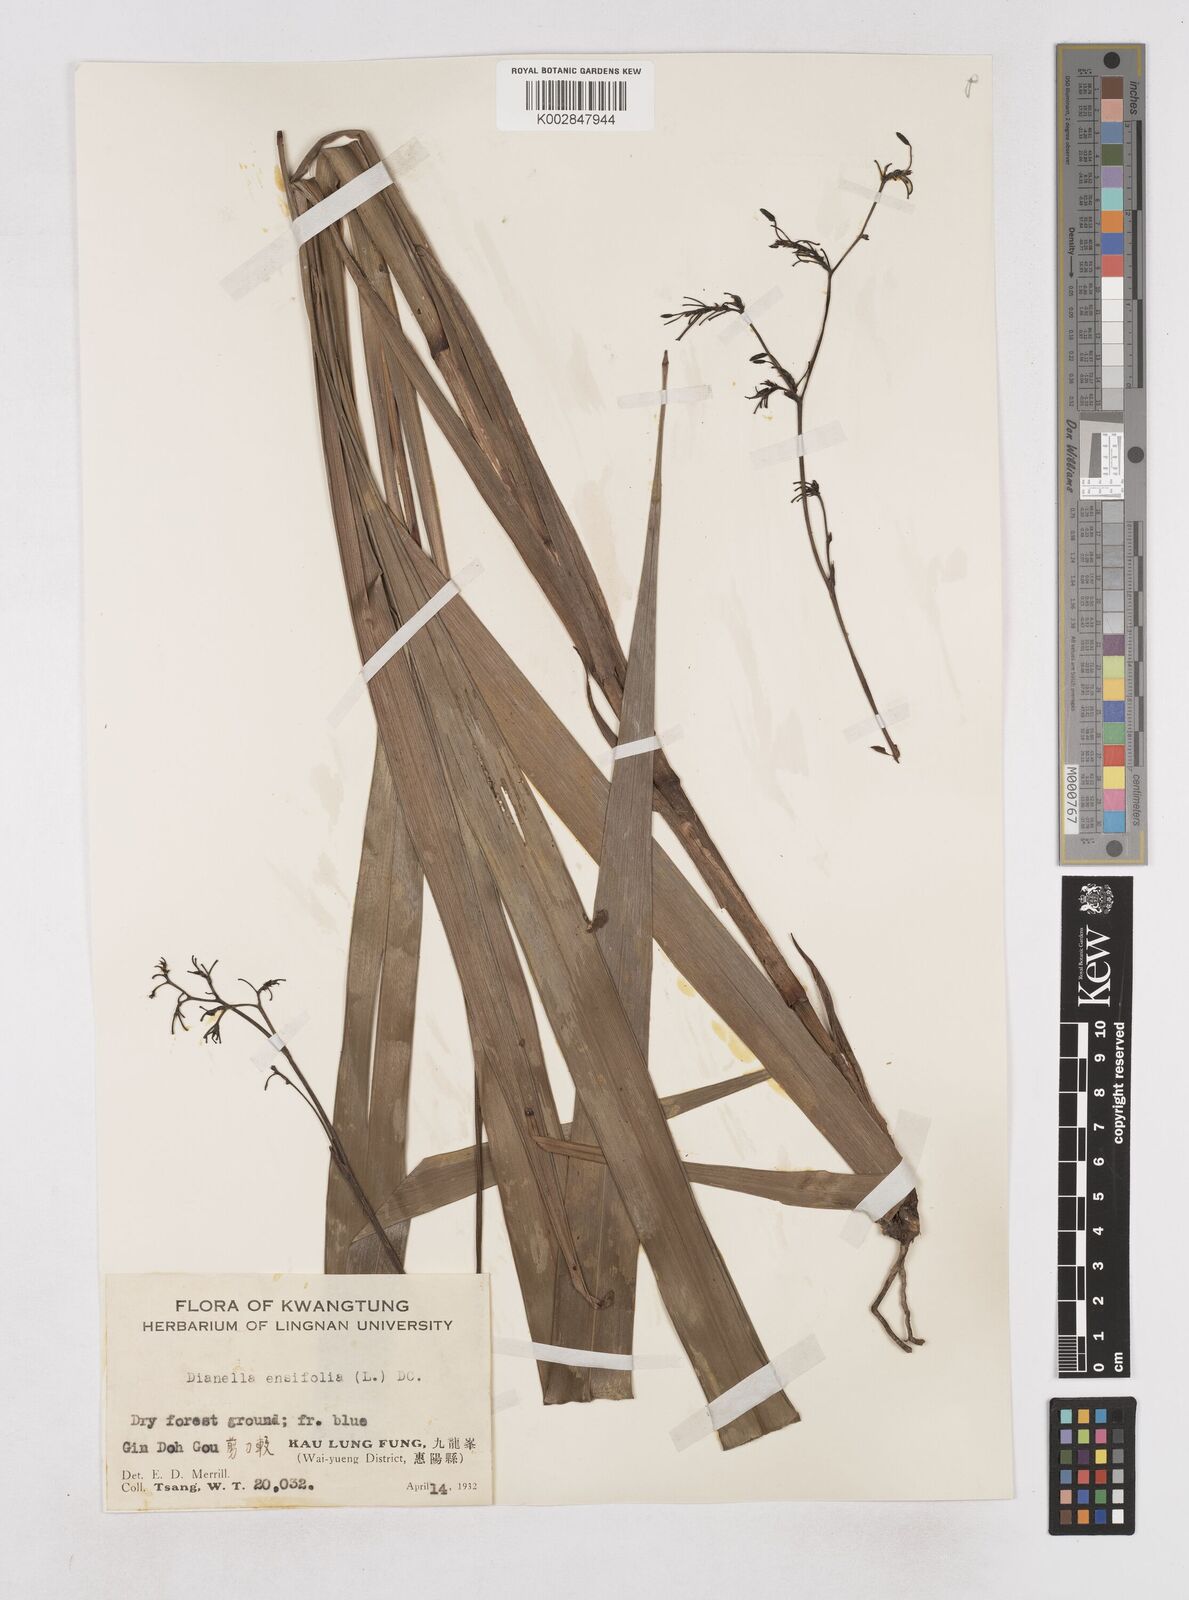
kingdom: Plantae
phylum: Tracheophyta
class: Liliopsida
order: Asparagales
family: Asphodelaceae
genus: Dianella
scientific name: Dianella ensifolia
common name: New zealand lilyplant
